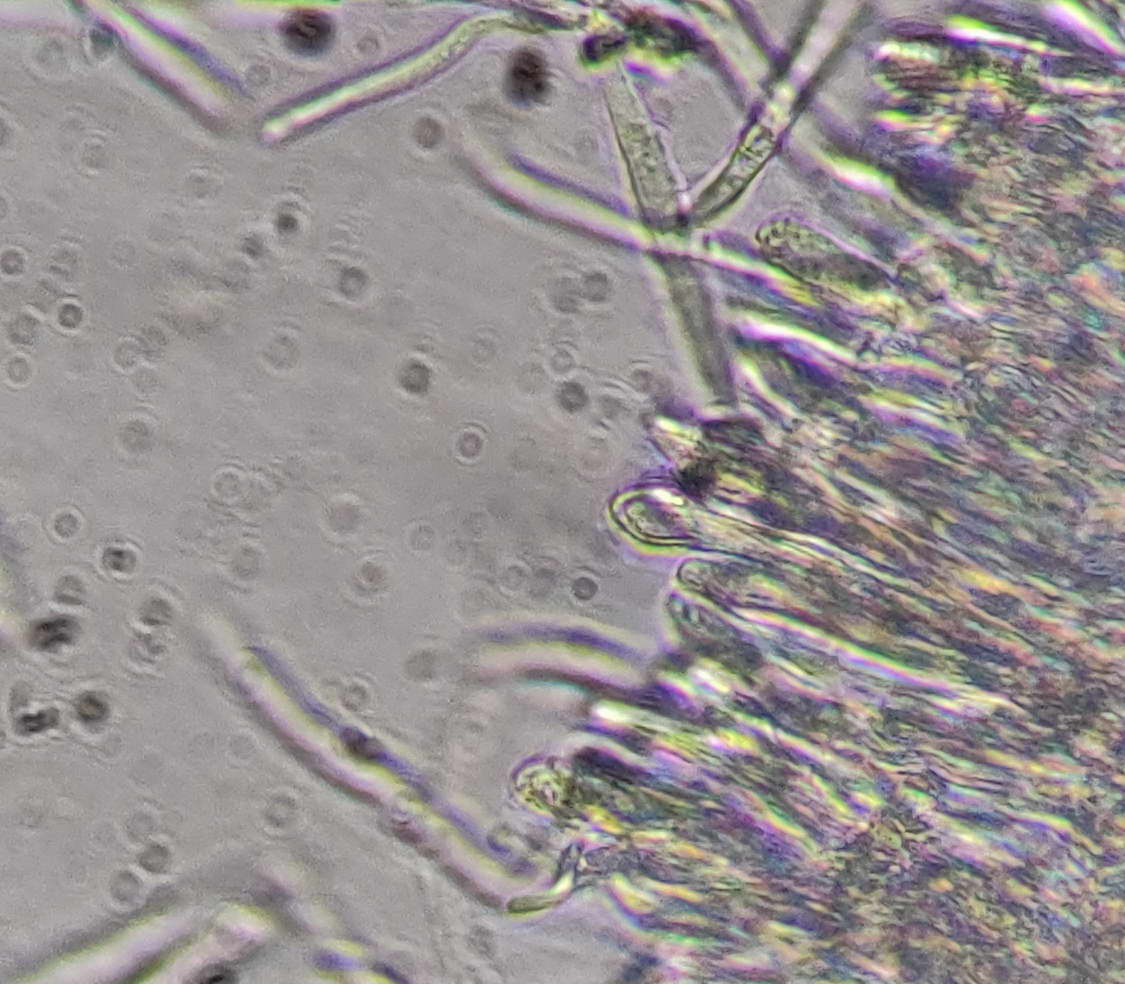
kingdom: Fungi
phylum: Ascomycota
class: Leotiomycetes
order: Helotiales
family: Lachnaceae
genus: Lachnum
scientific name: Lachnum tenuissimum
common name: spinkel frynseskive
